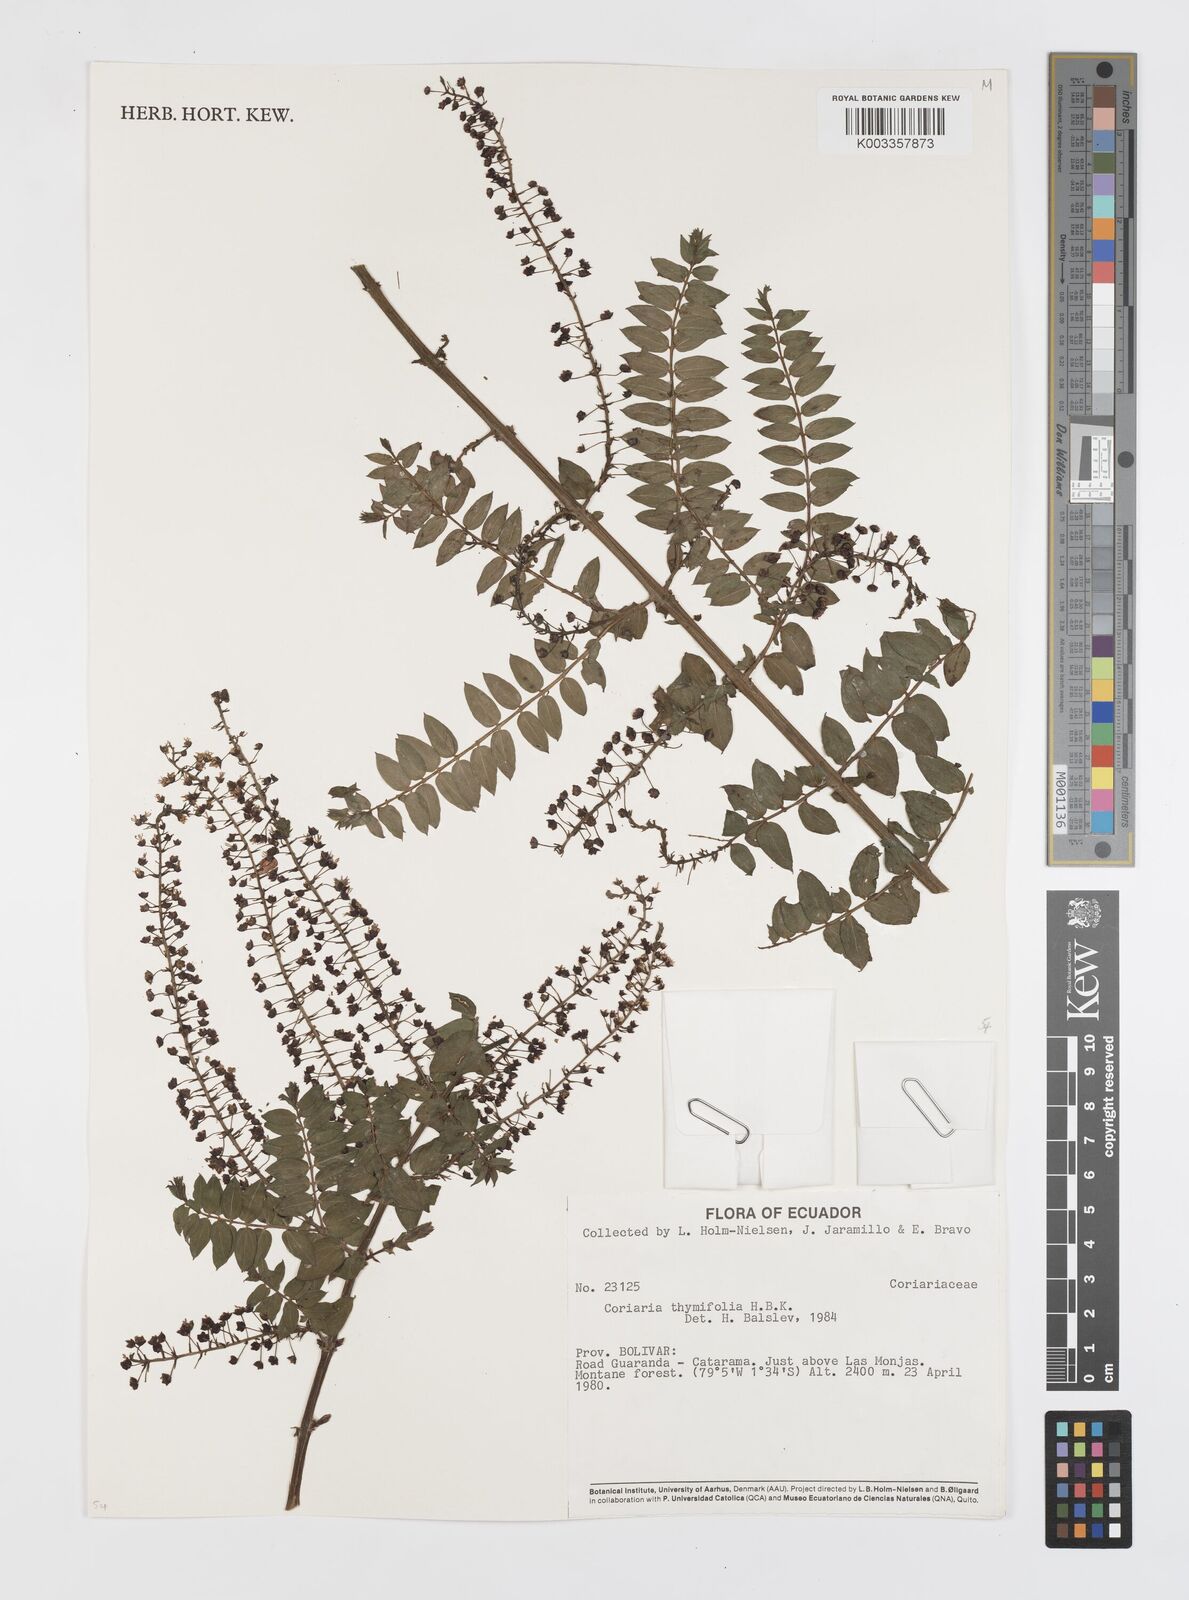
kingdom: Plantae
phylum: Tracheophyta
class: Magnoliopsida
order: Cucurbitales
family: Coriariaceae
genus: Coriaria
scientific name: Coriaria microphylla
